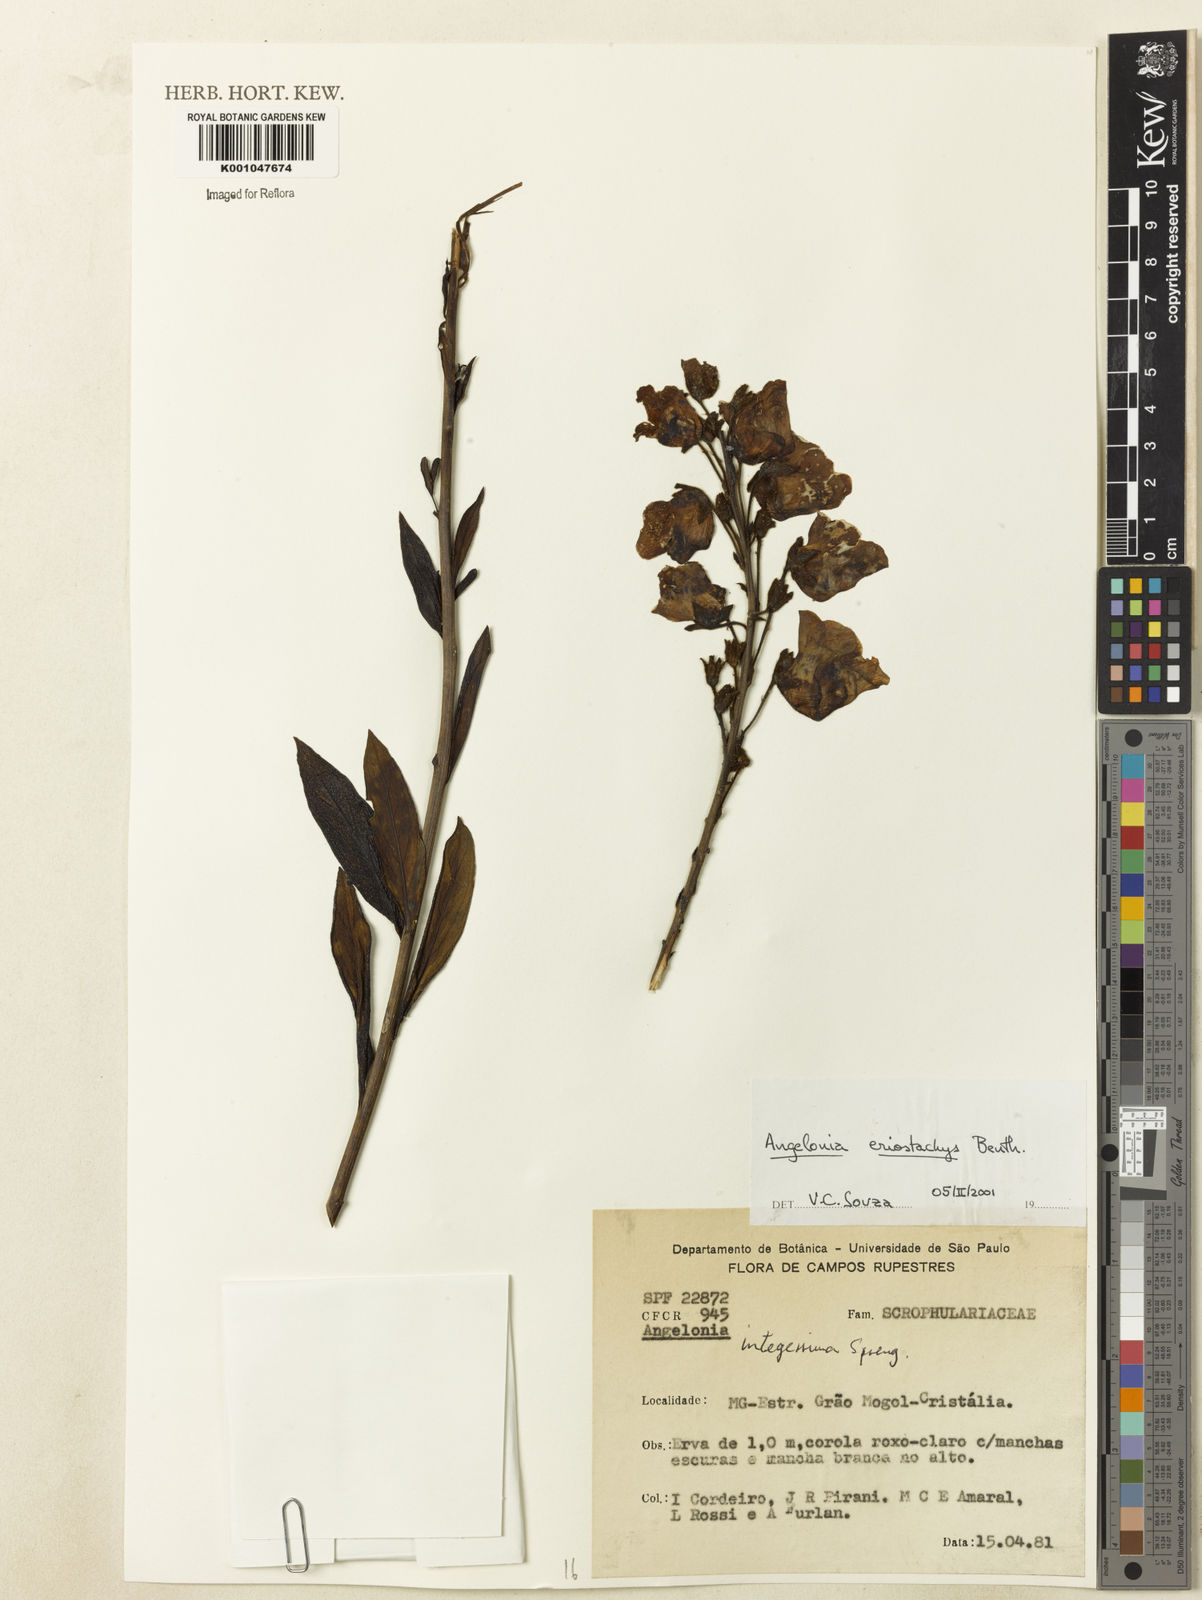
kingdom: Plantae
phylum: Tracheophyta
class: Magnoliopsida
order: Lamiales
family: Plantaginaceae
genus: Angelonia
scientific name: Angelonia eriostachys
